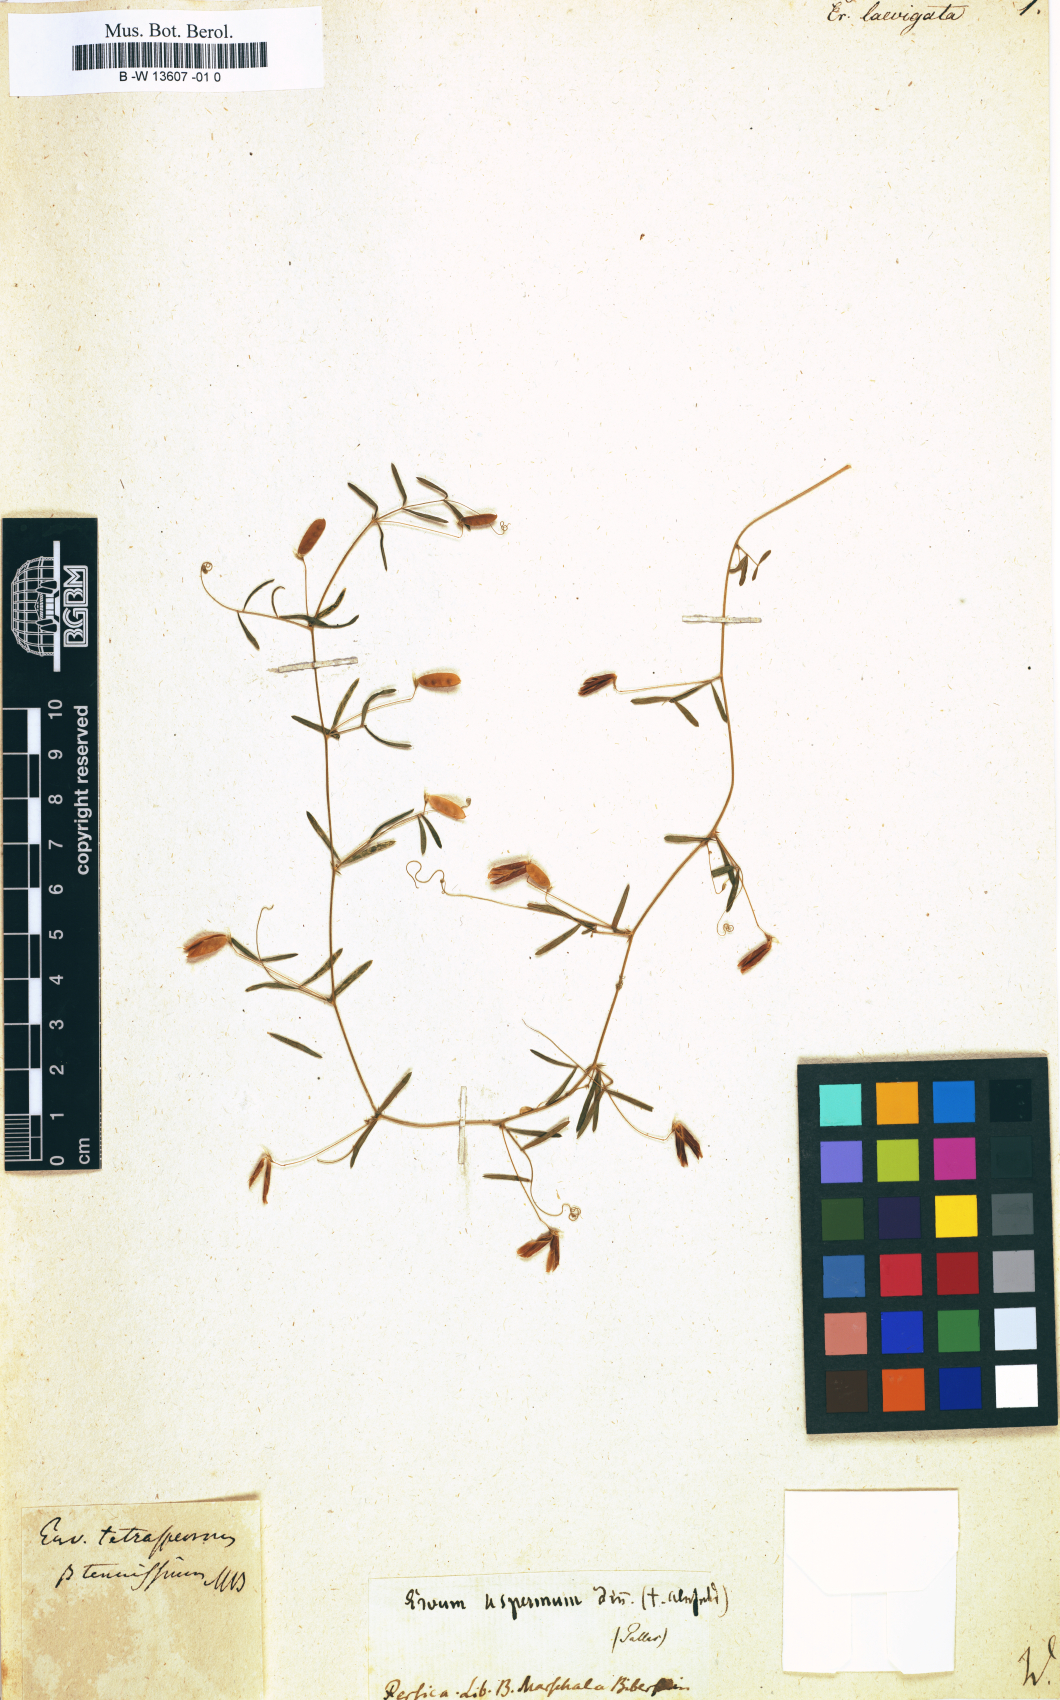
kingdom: Plantae
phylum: Tracheophyta
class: Magnoliopsida
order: Fabales
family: Fabaceae
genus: Vicia
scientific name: Vicia
